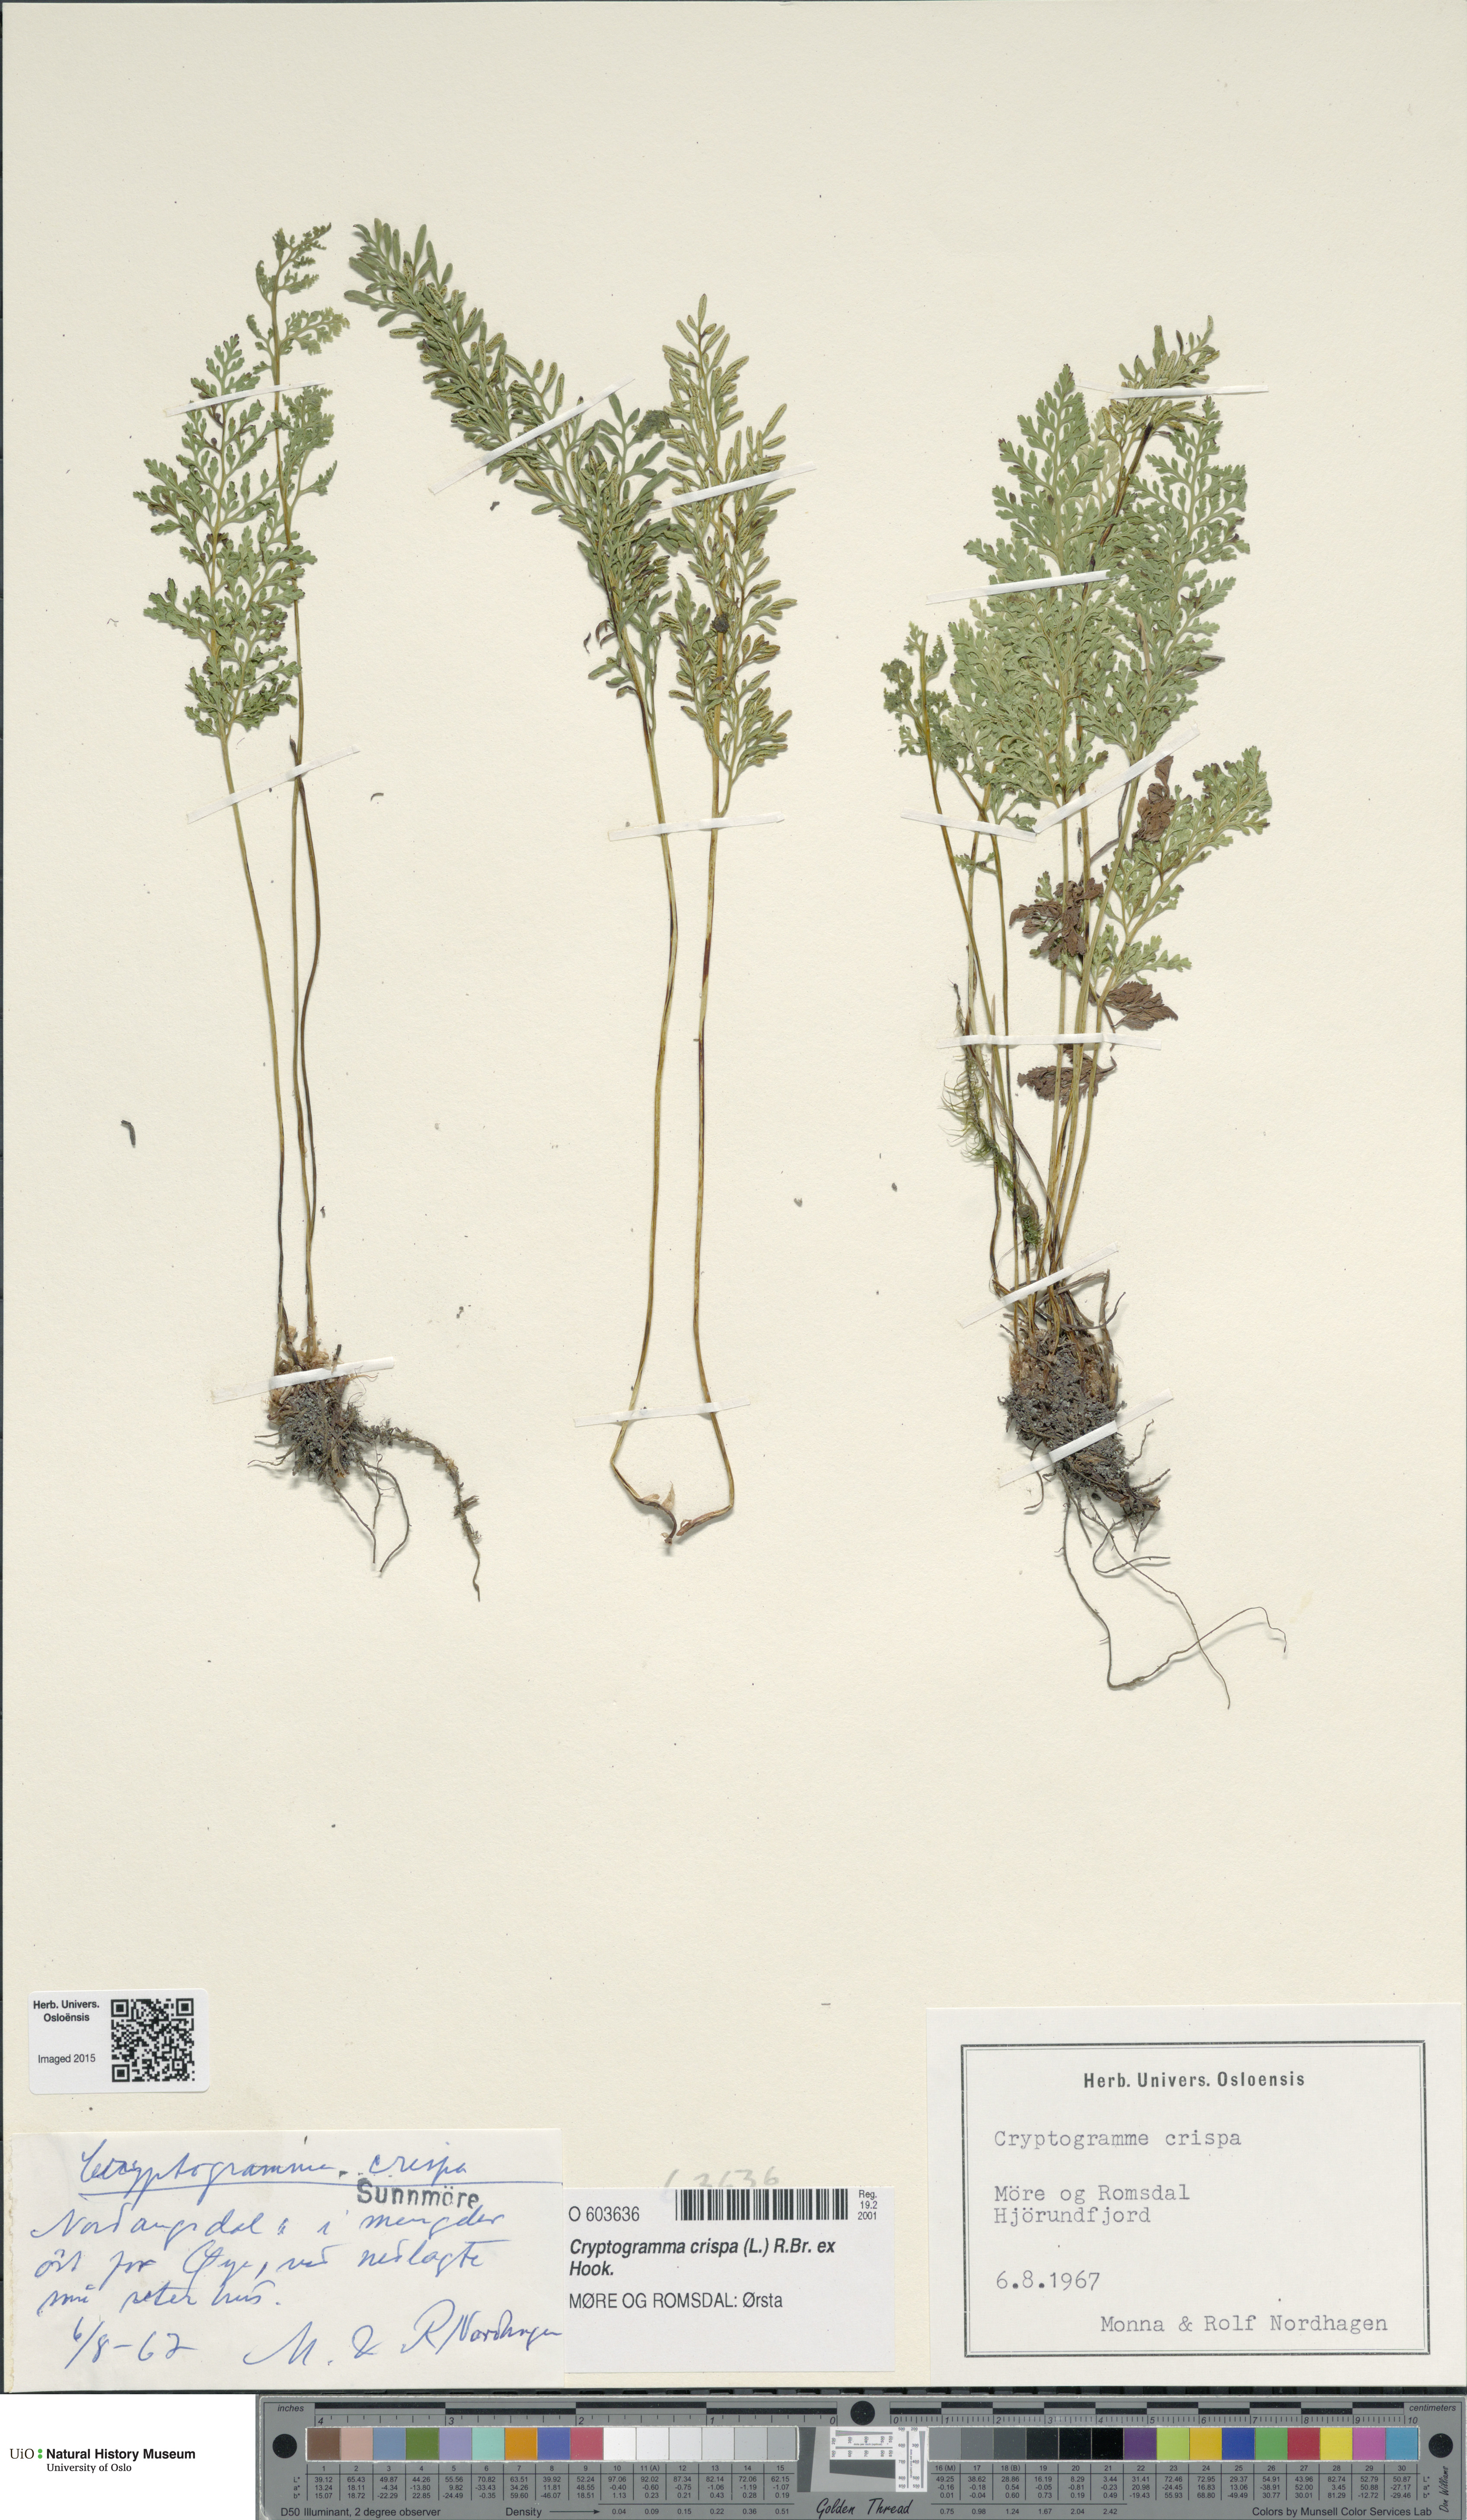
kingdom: Plantae
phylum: Tracheophyta
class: Polypodiopsida
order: Polypodiales
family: Pteridaceae
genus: Cryptogramma
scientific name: Cryptogramma crispa
